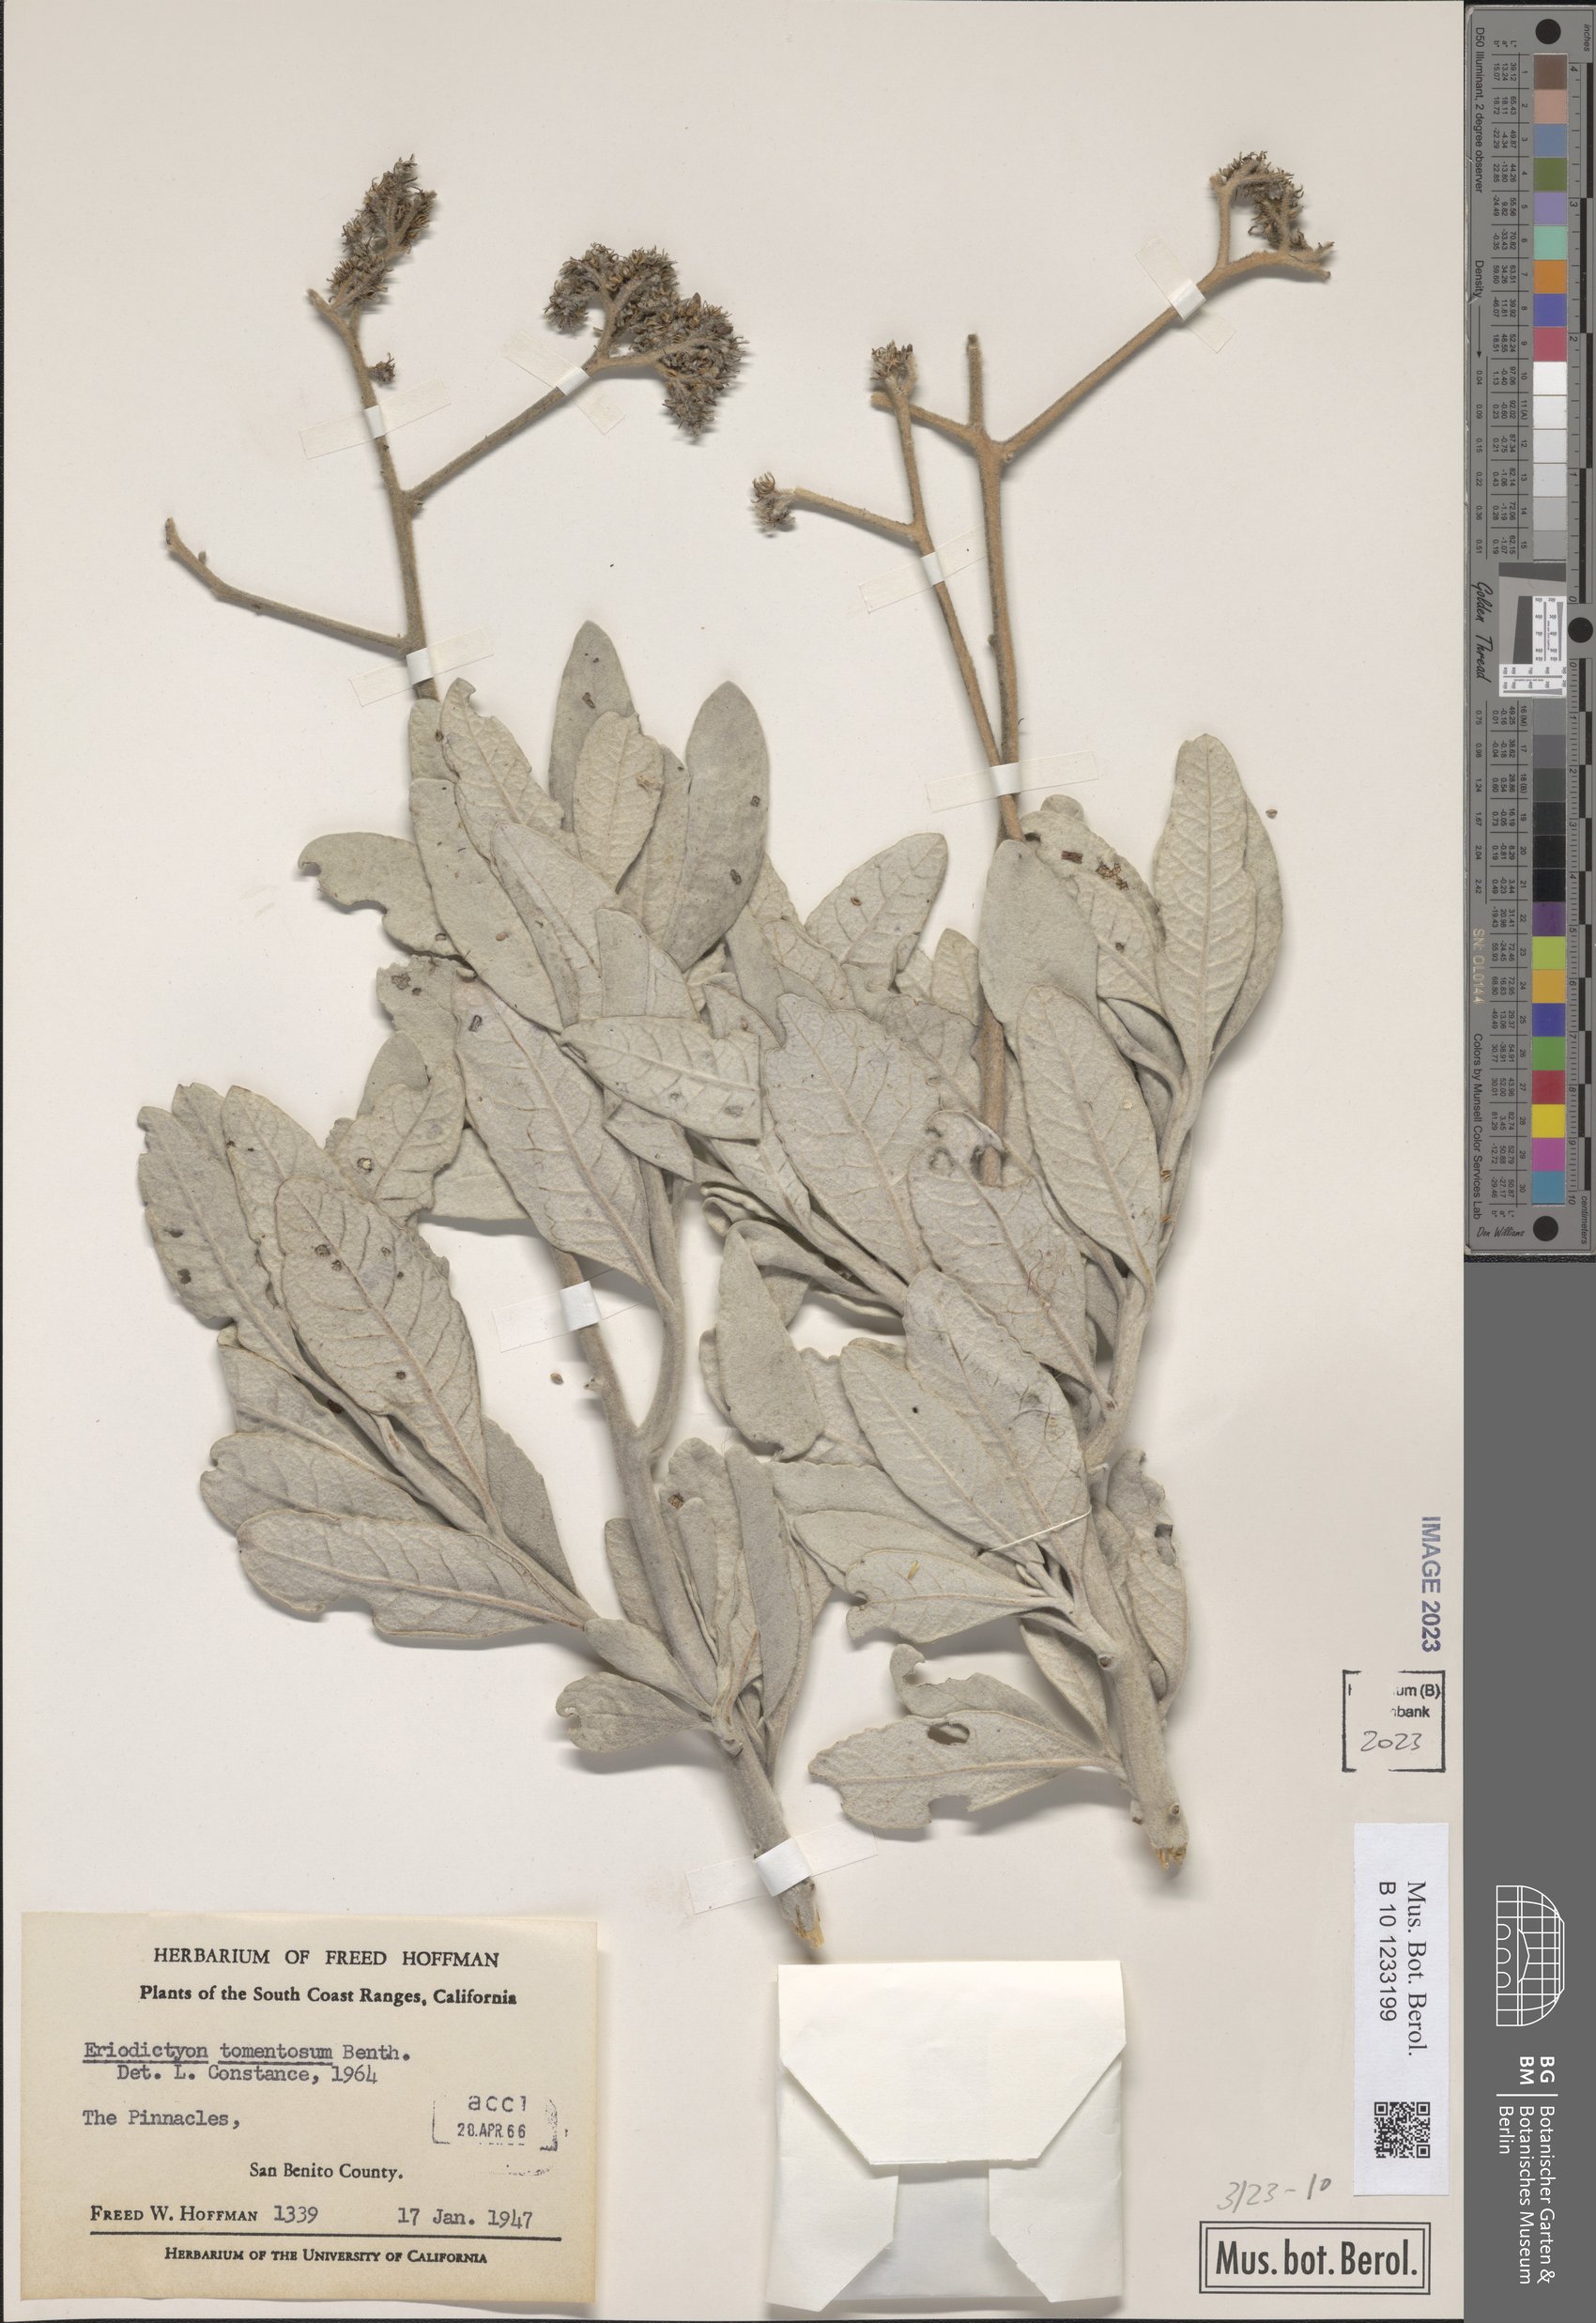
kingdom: Plantae
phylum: Tracheophyta
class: Magnoliopsida
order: Boraginales
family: Namaceae
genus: Eriodictyon
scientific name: Eriodictyon tomentosum
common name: Woolly yerba-santa
